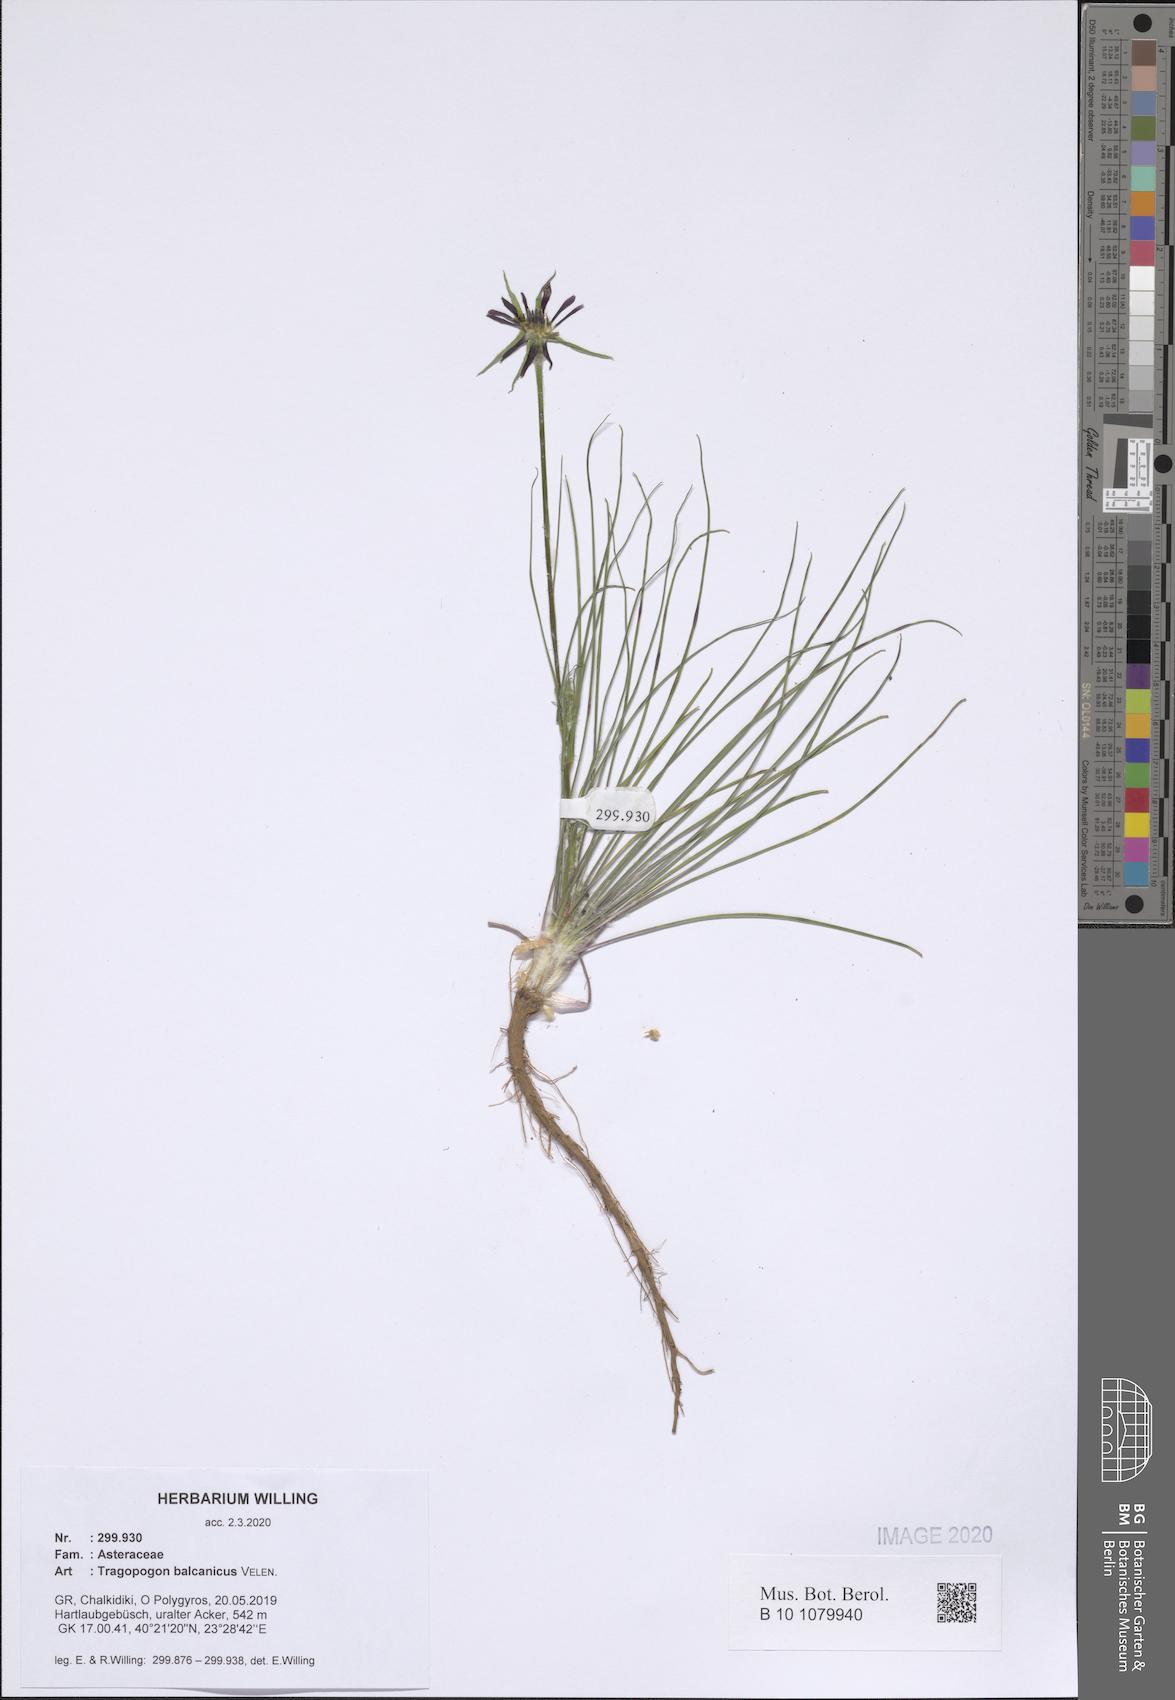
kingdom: Plantae
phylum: Tracheophyta
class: Magnoliopsida
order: Asterales
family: Asteraceae
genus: Tragopogon
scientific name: Tragopogon balcanicus
